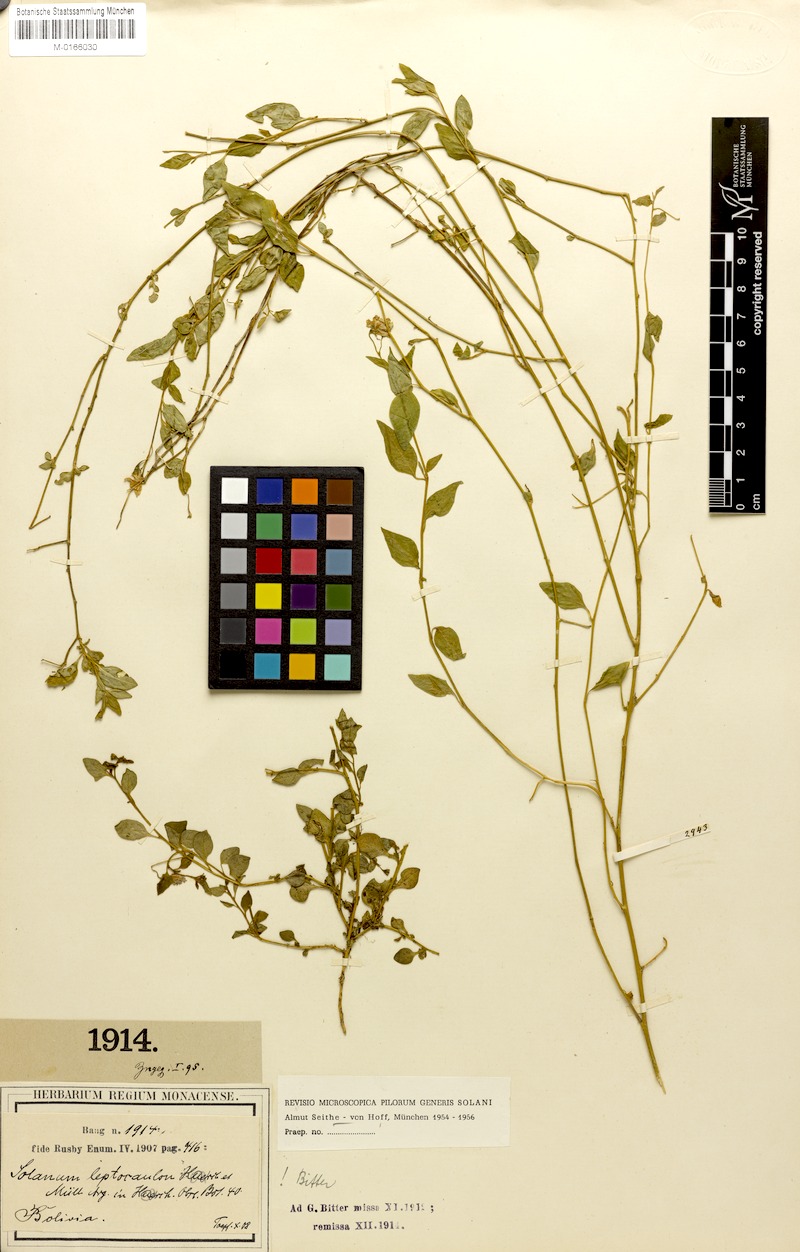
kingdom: Plantae
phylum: Tracheophyta
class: Magnoliopsida
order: Solanales
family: Solanaceae
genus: Solanum
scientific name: Solanum leptocaulon
